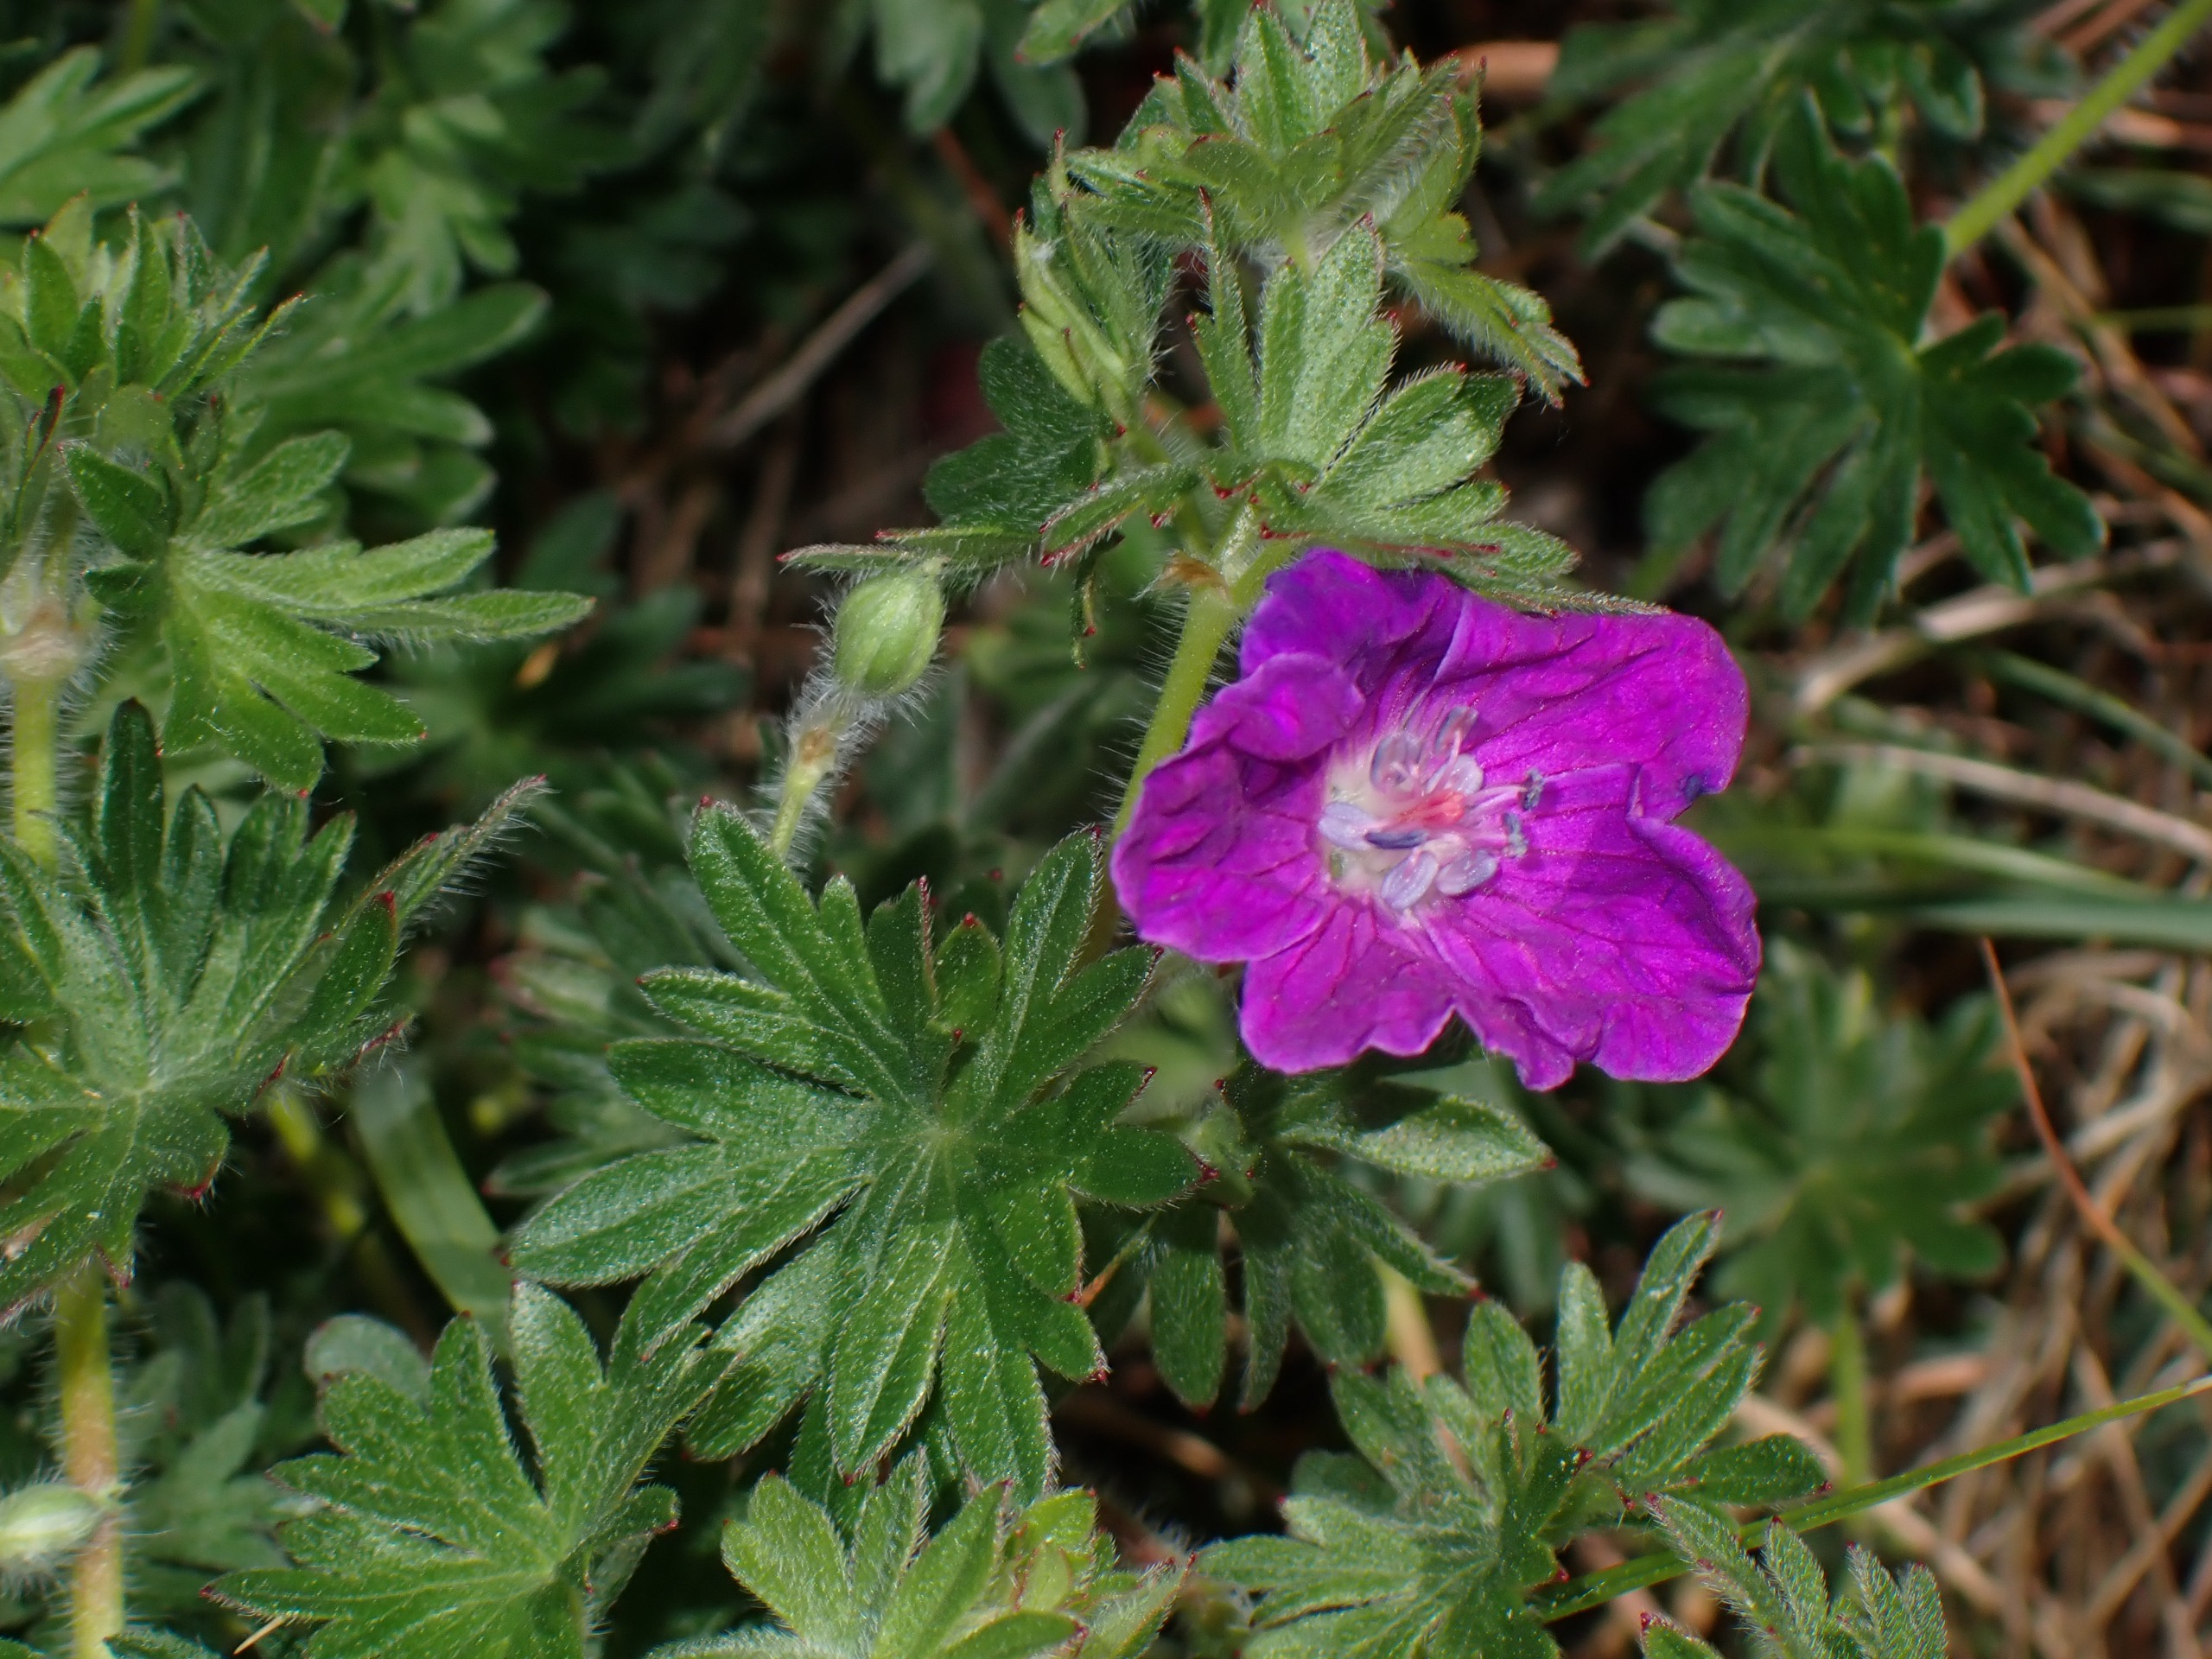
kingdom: Plantae
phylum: Tracheophyta
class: Magnoliopsida
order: Geraniales
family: Geraniaceae
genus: Geranium
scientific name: Geranium sanguineum
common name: Blodrød storkenæb
